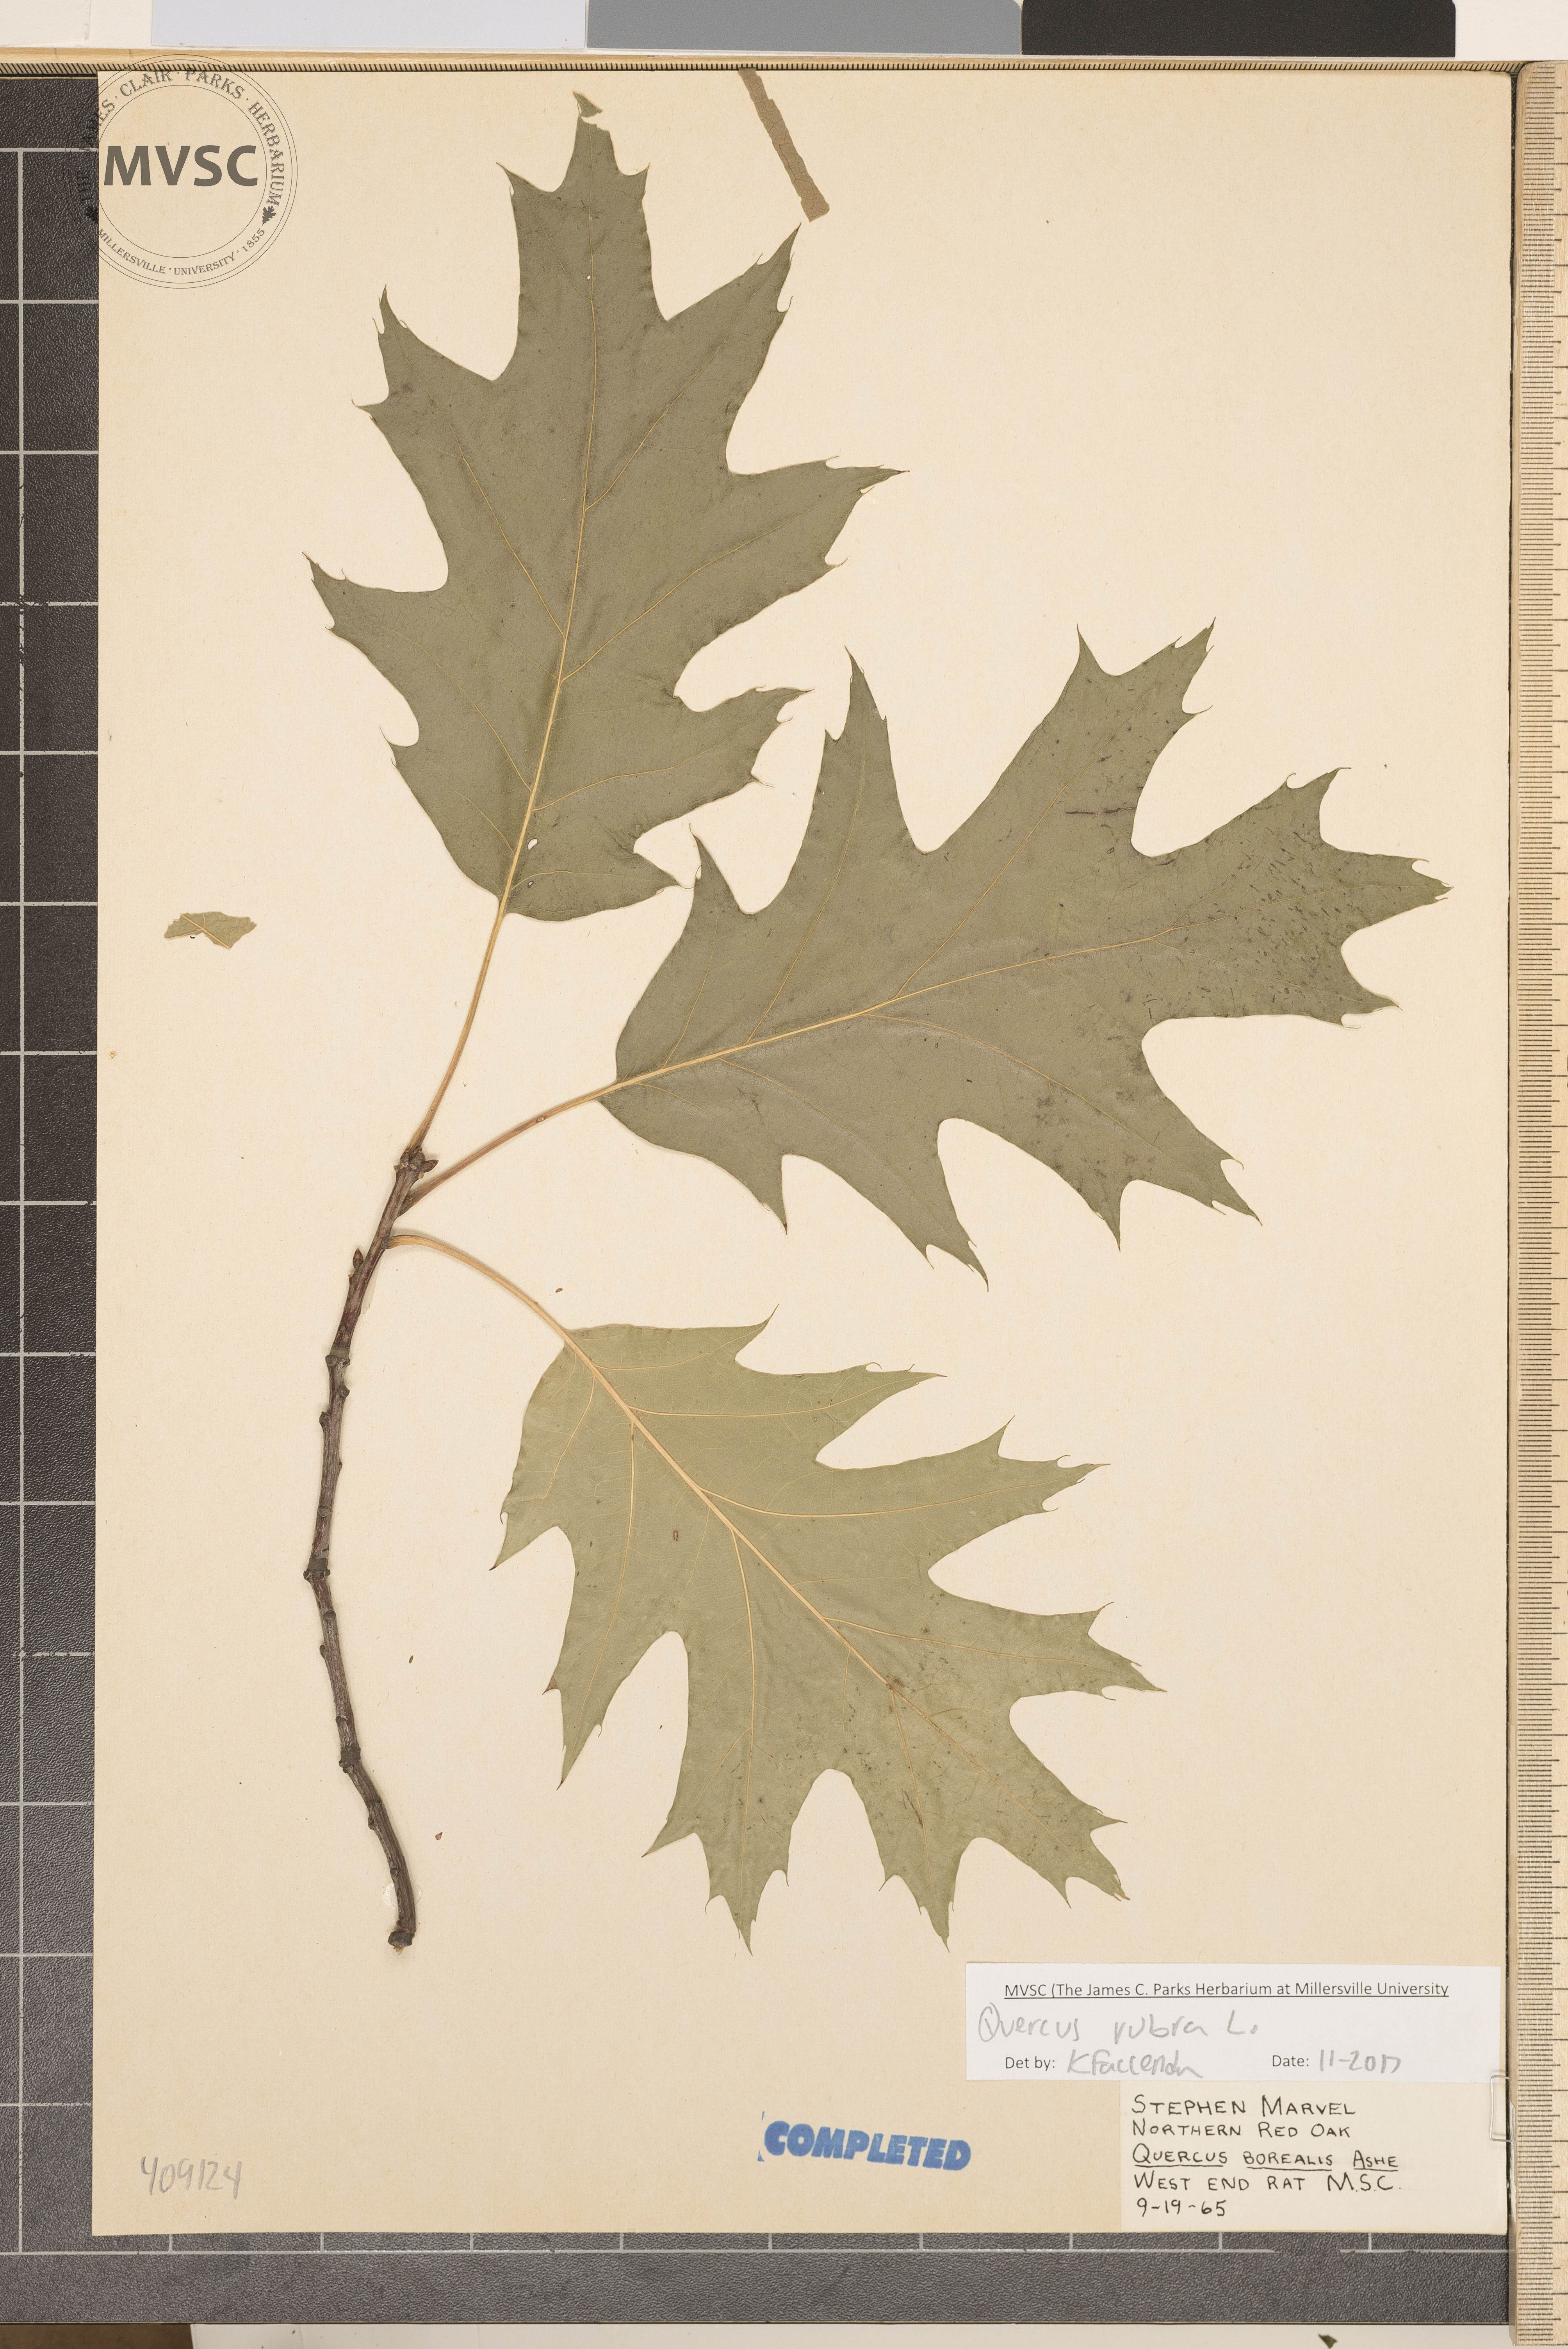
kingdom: Plantae
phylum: Tracheophyta
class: Magnoliopsida
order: Fagales
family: Fagaceae
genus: Quercus
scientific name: Quercus rubra
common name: Red oak
